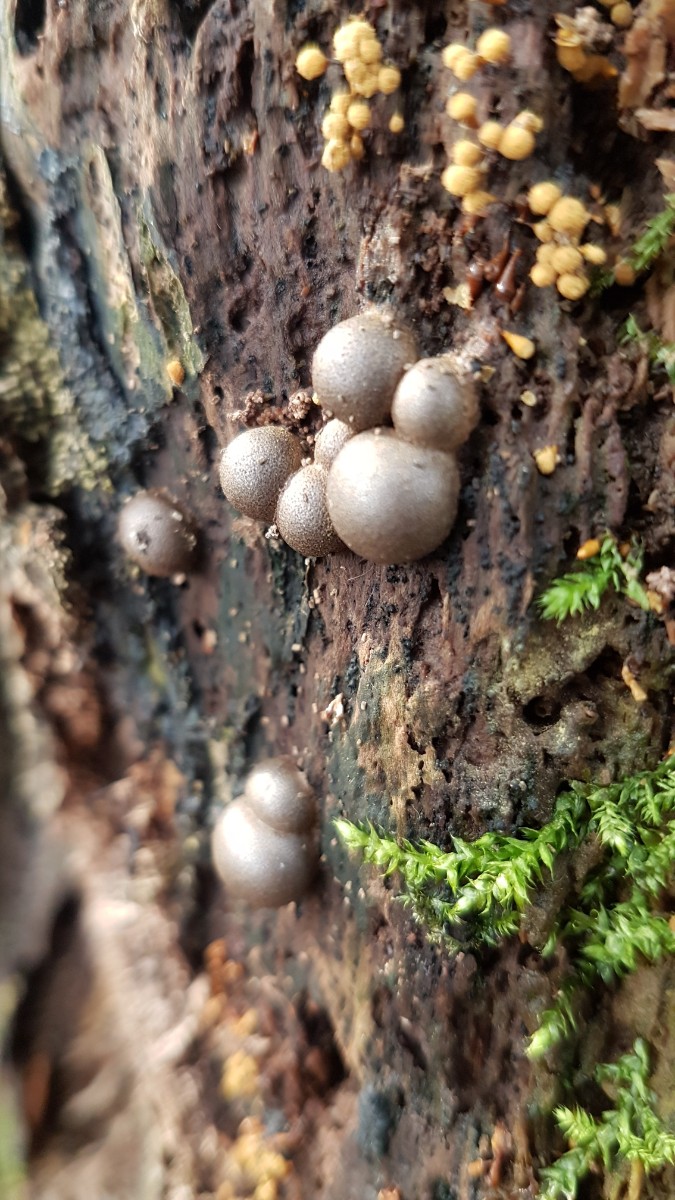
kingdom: Protozoa
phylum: Mycetozoa
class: Myxomycetes
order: Cribrariales
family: Tubiferaceae
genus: Lycogala
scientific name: Lycogala epidendrum
